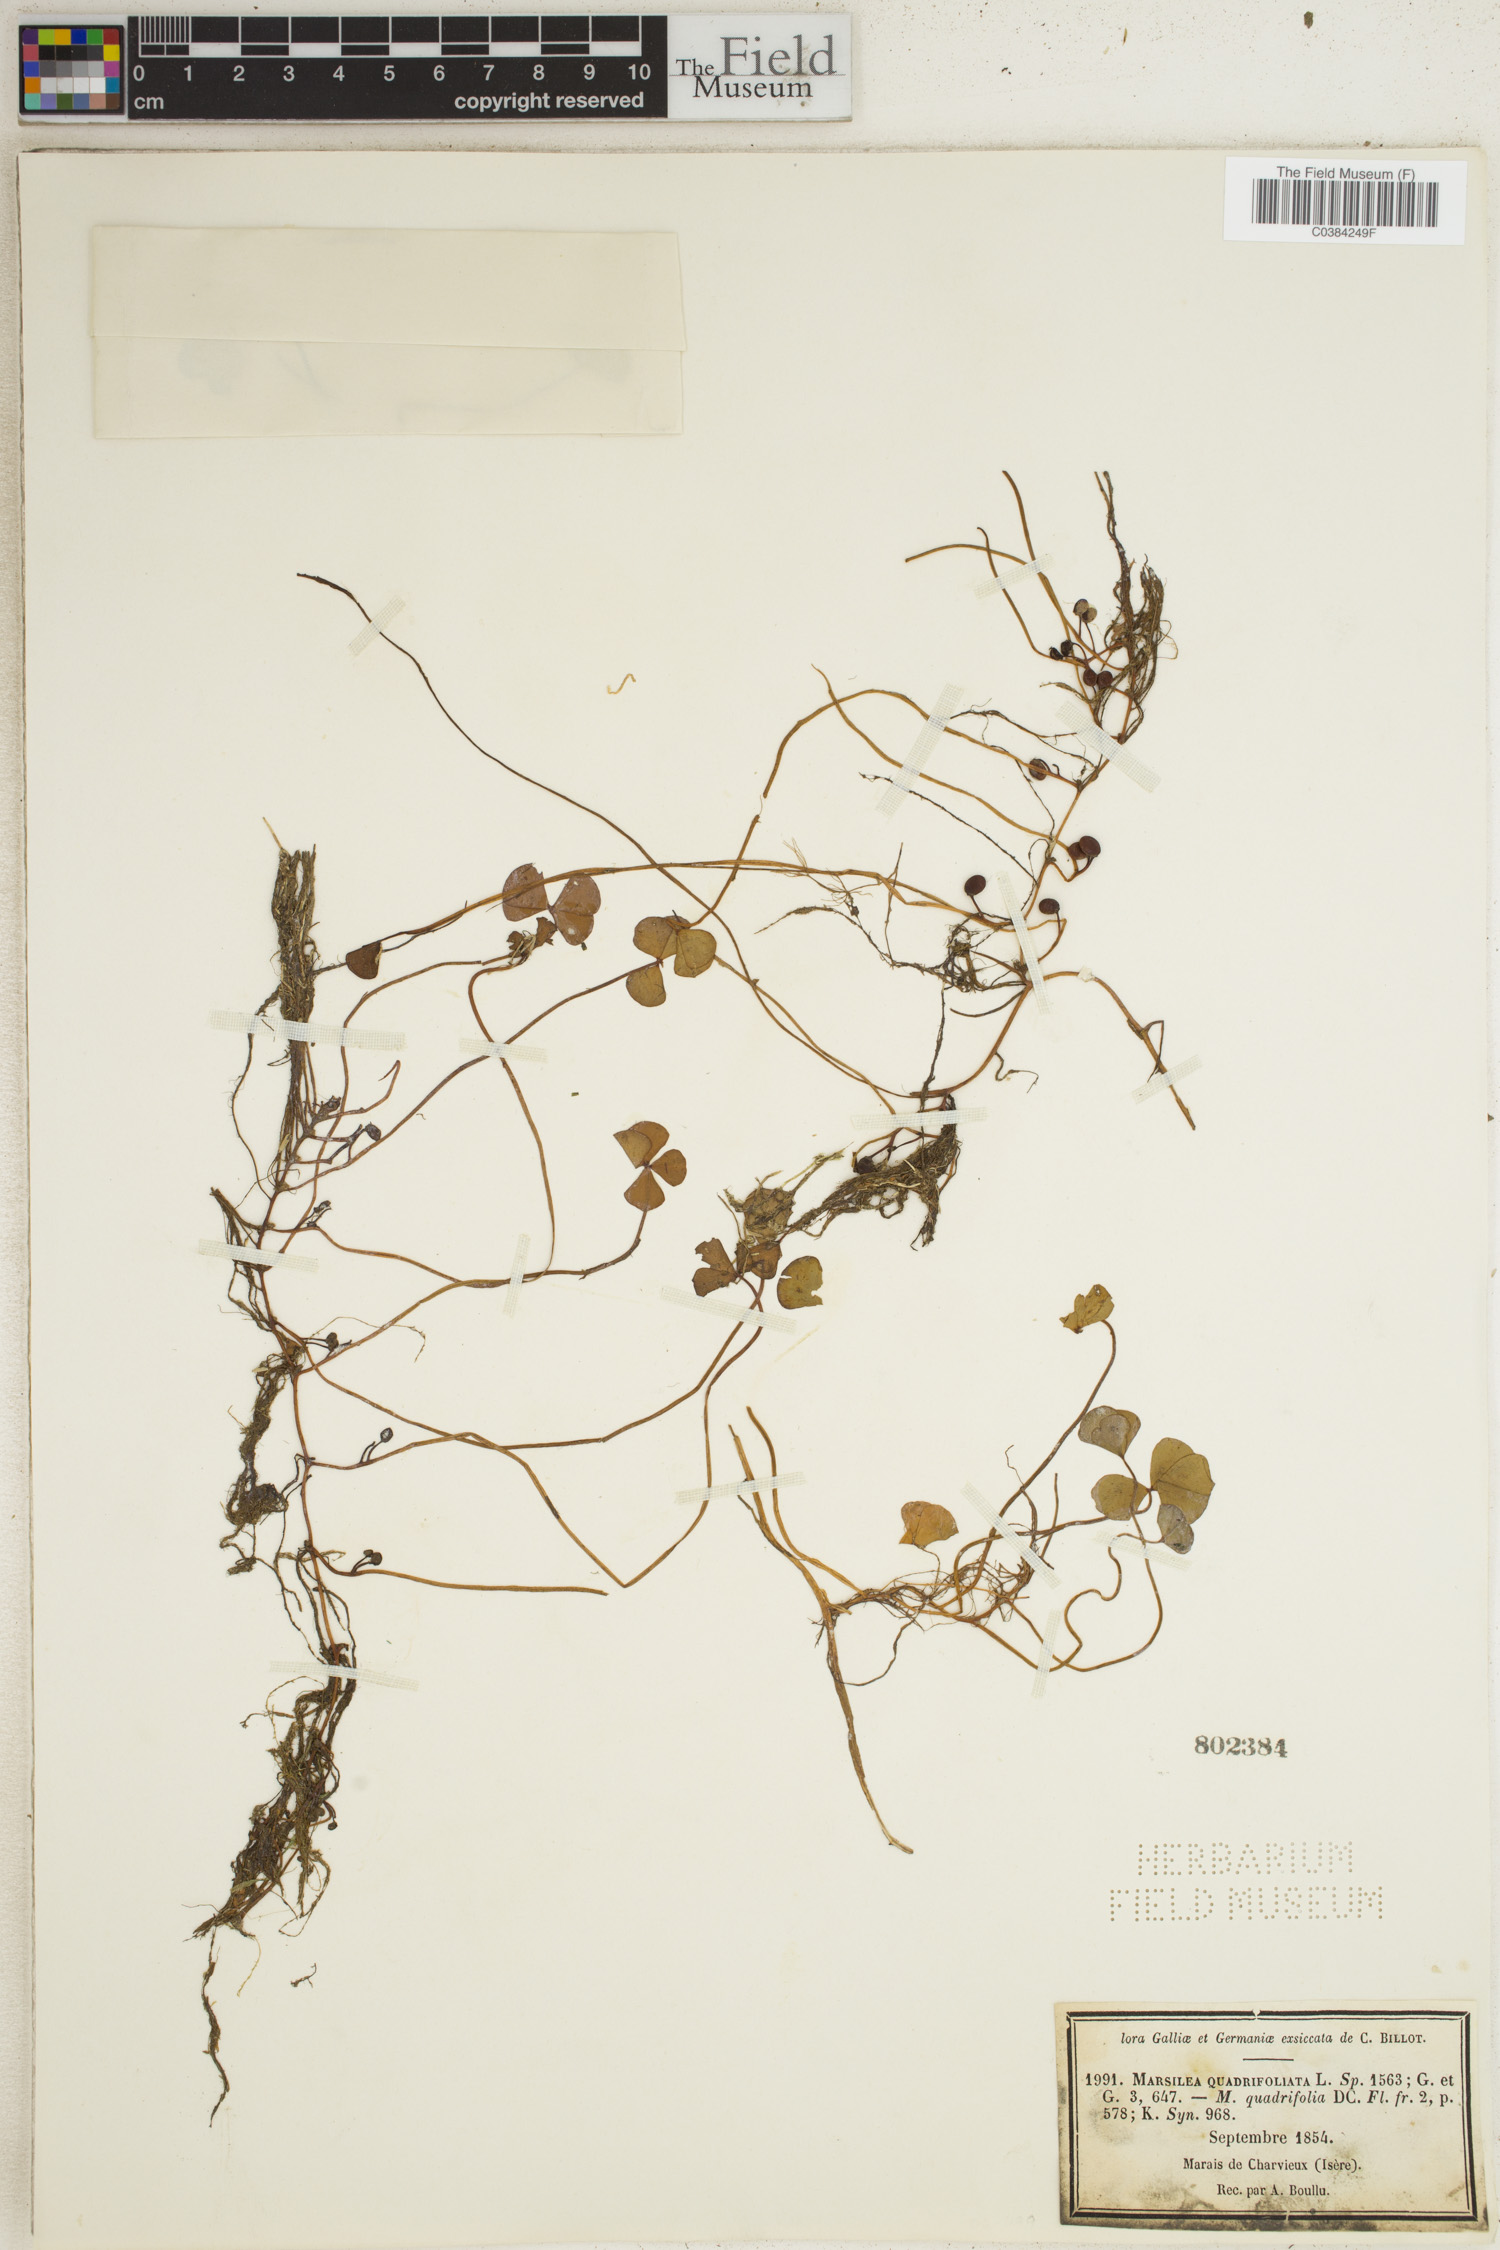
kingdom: Plantae
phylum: Tracheophyta
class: Polypodiopsida
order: Salviniales
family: Marsileaceae
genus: Marsilea
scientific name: Marsilea quadrifolia
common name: Water shamrock
